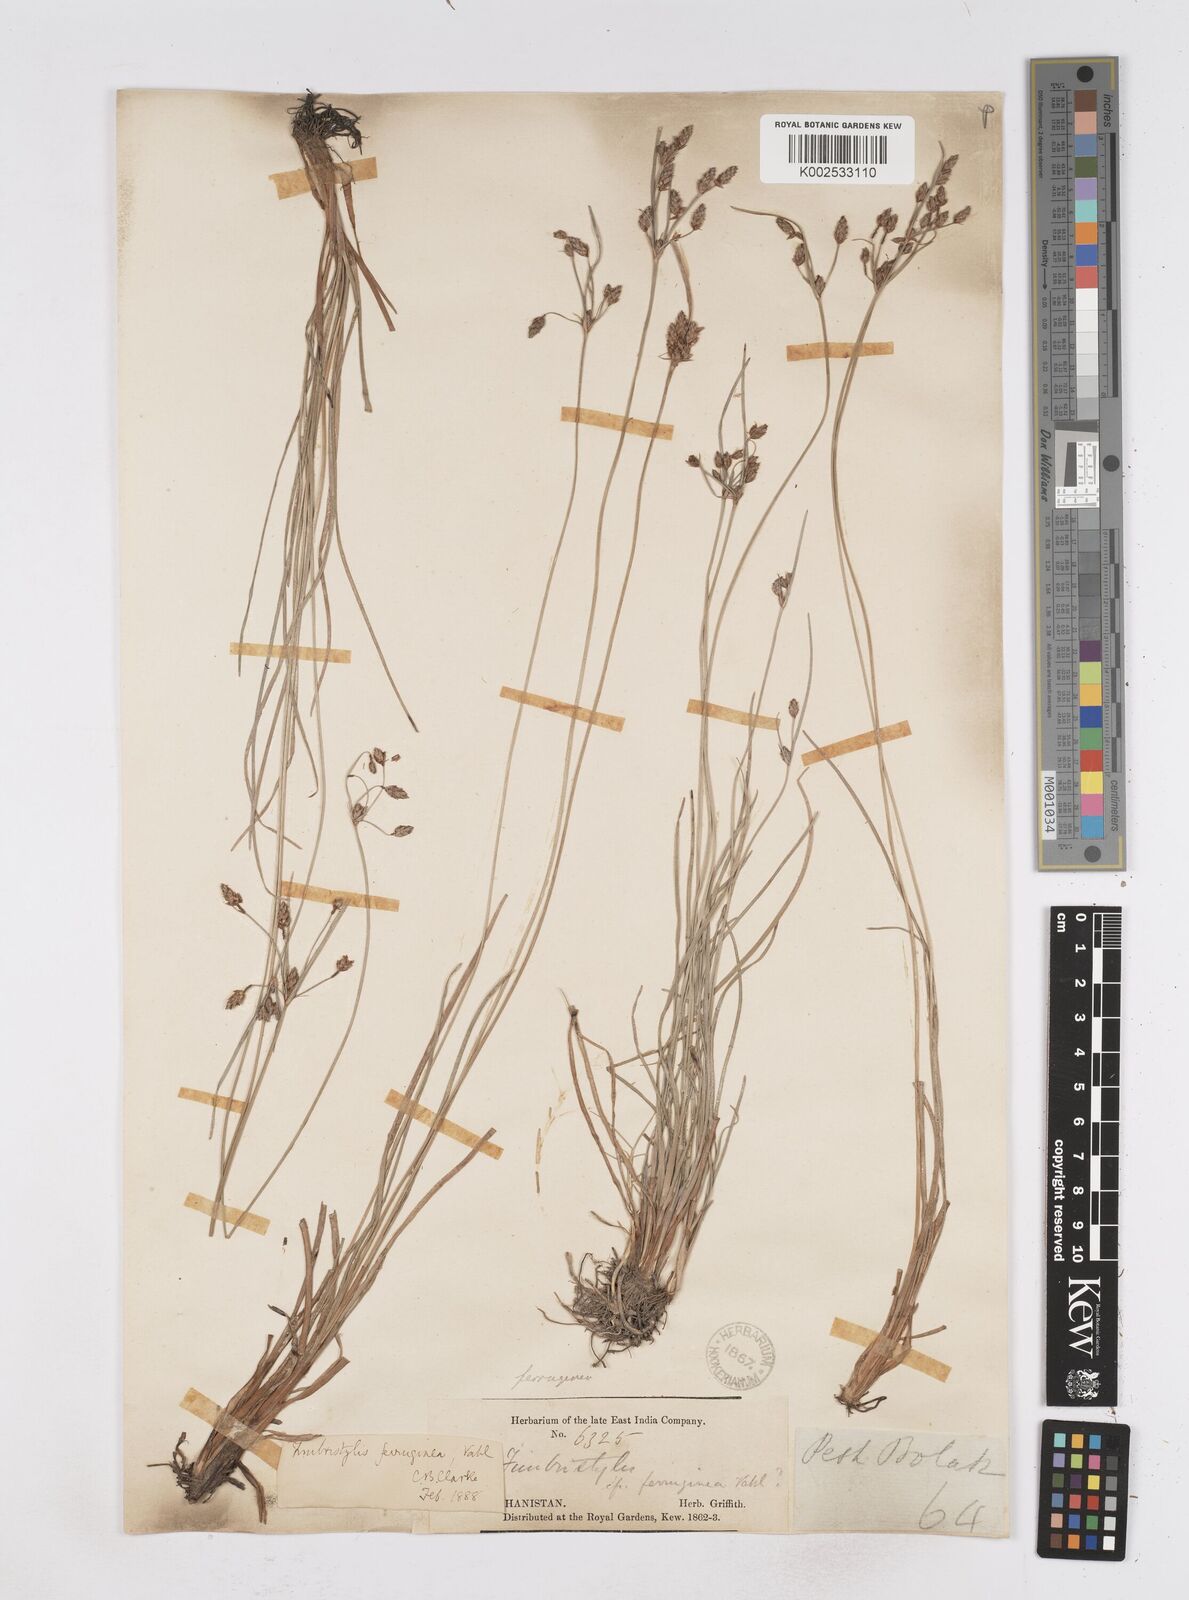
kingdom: Plantae
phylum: Tracheophyta
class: Liliopsida
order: Poales
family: Cyperaceae
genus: Fimbristylis
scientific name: Fimbristylis ferruginea
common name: West indian fimbry
